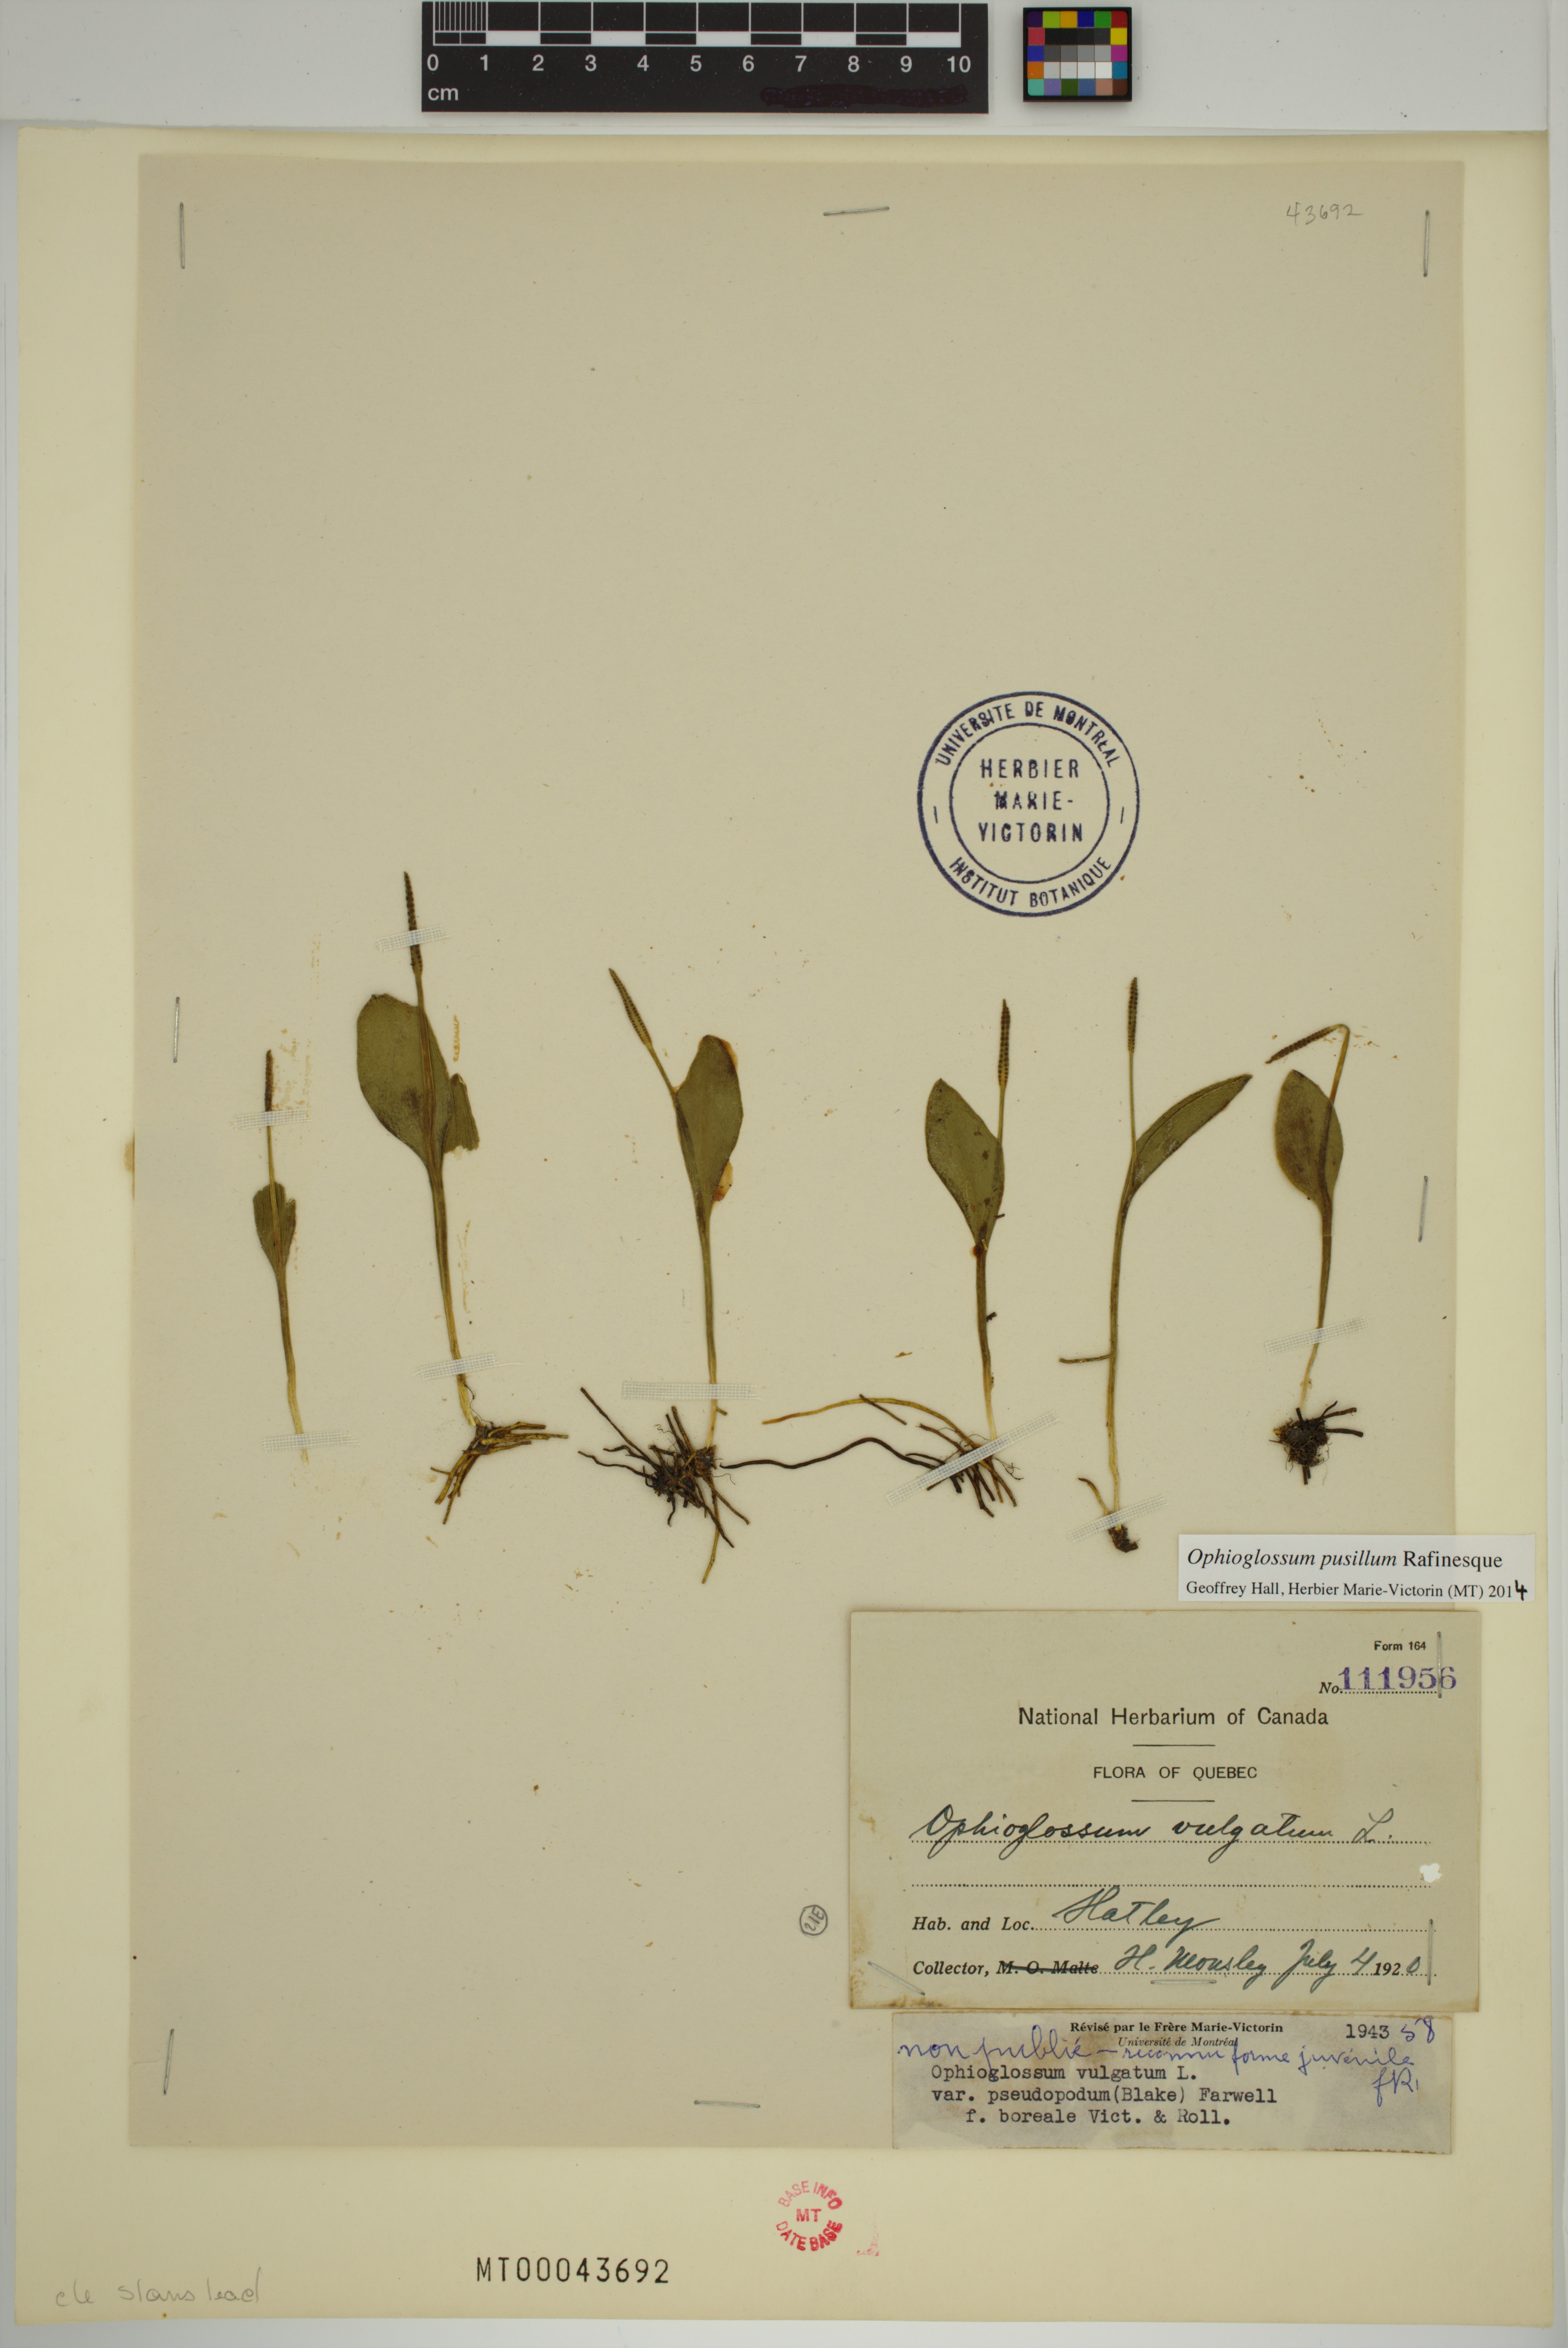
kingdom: Plantae
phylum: Tracheophyta
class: Polypodiopsida
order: Ophioglossales
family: Ophioglossaceae
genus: Ophioglossum
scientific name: Ophioglossum pusillum
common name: Northern adder's-tongue
